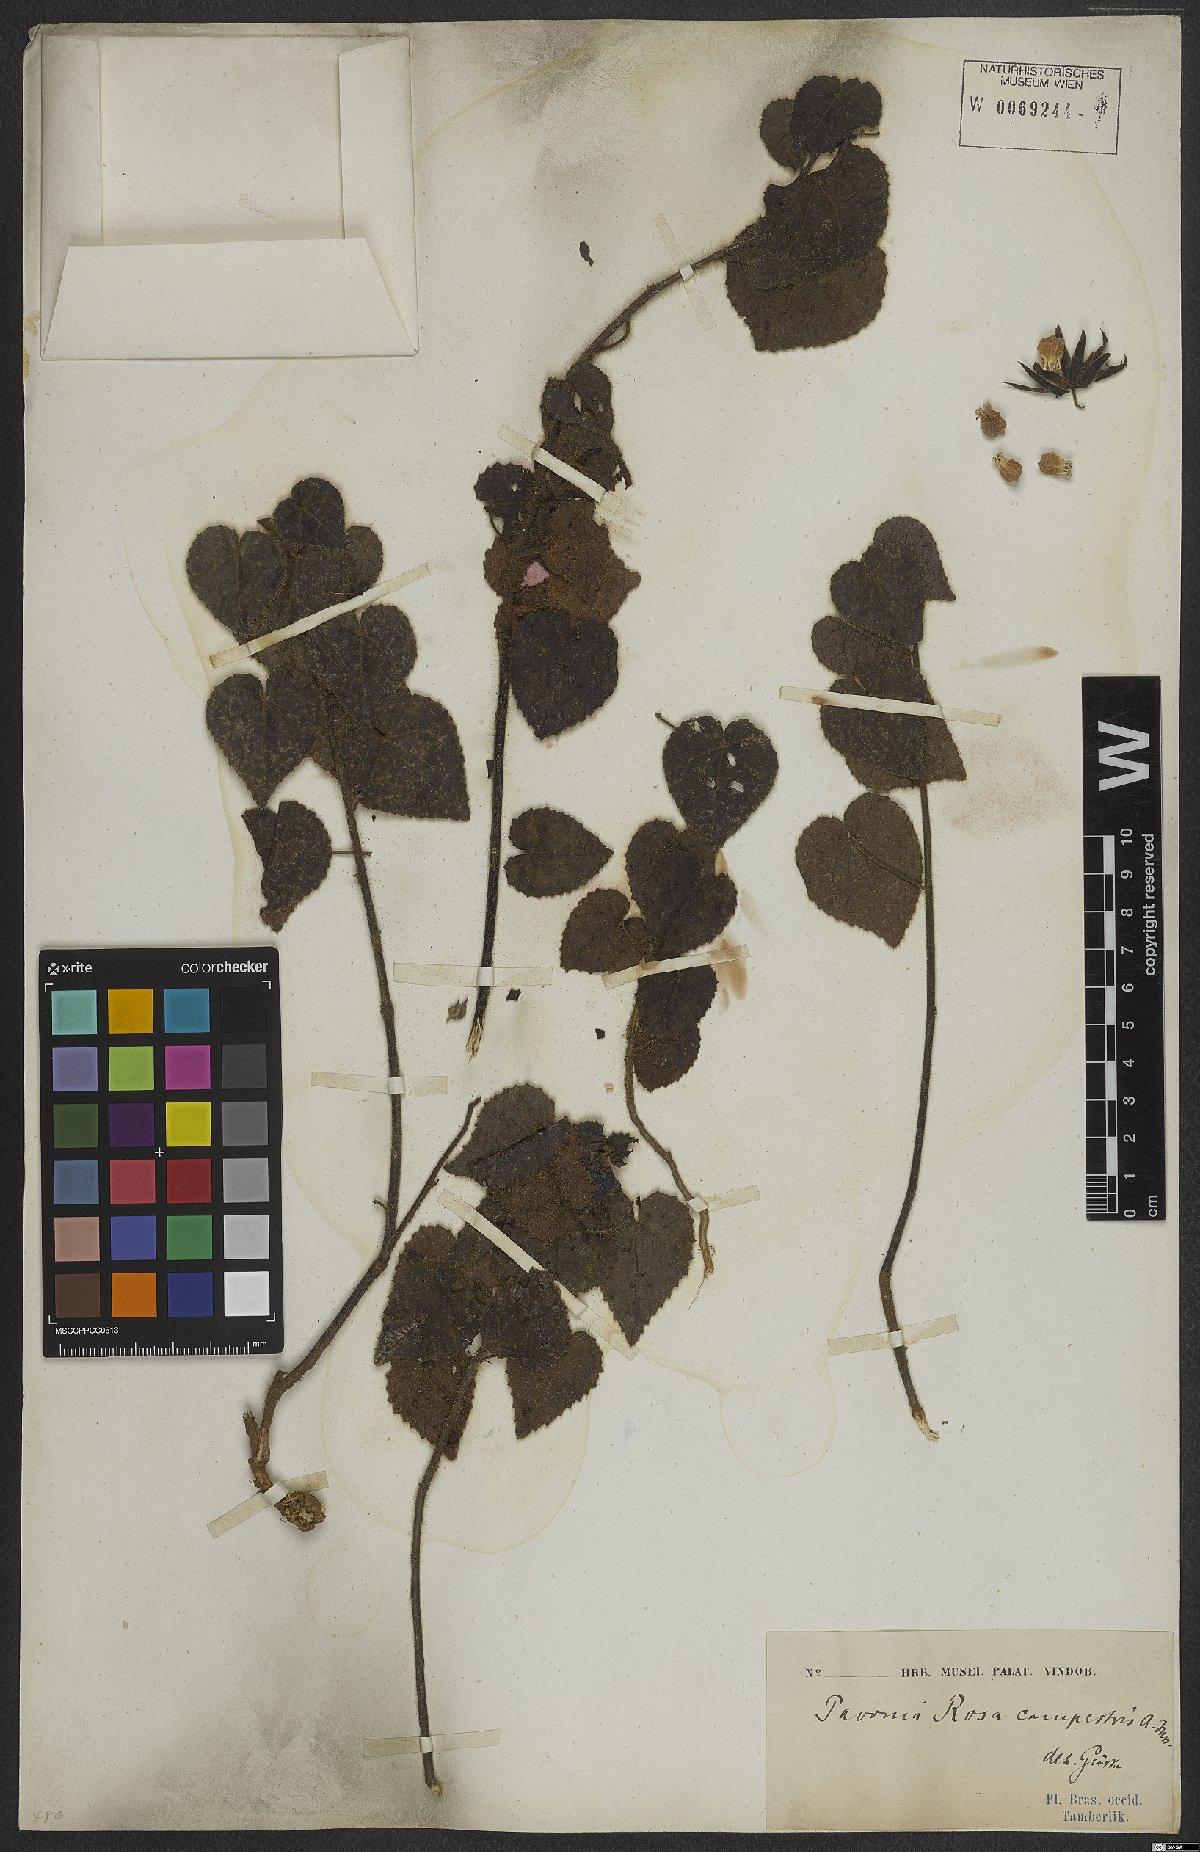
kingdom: Plantae
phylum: Tracheophyta
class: Magnoliopsida
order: Malvales
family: Malvaceae
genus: Pavonia
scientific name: Pavonia rosa-campestris
